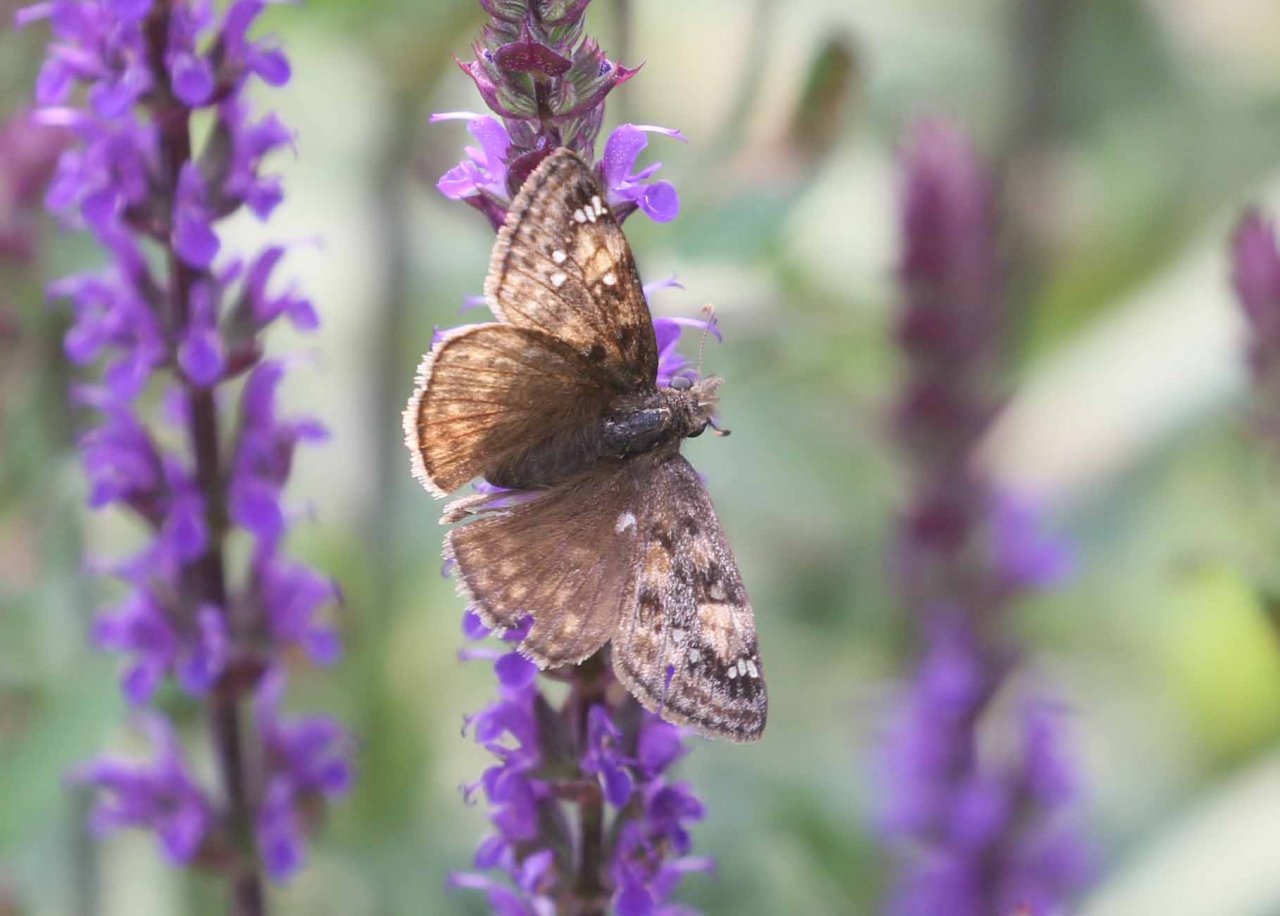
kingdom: Animalia
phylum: Arthropoda
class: Insecta
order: Lepidoptera
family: Hesperiidae
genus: Gesta
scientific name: Gesta
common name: Juvenal's Duskywing
